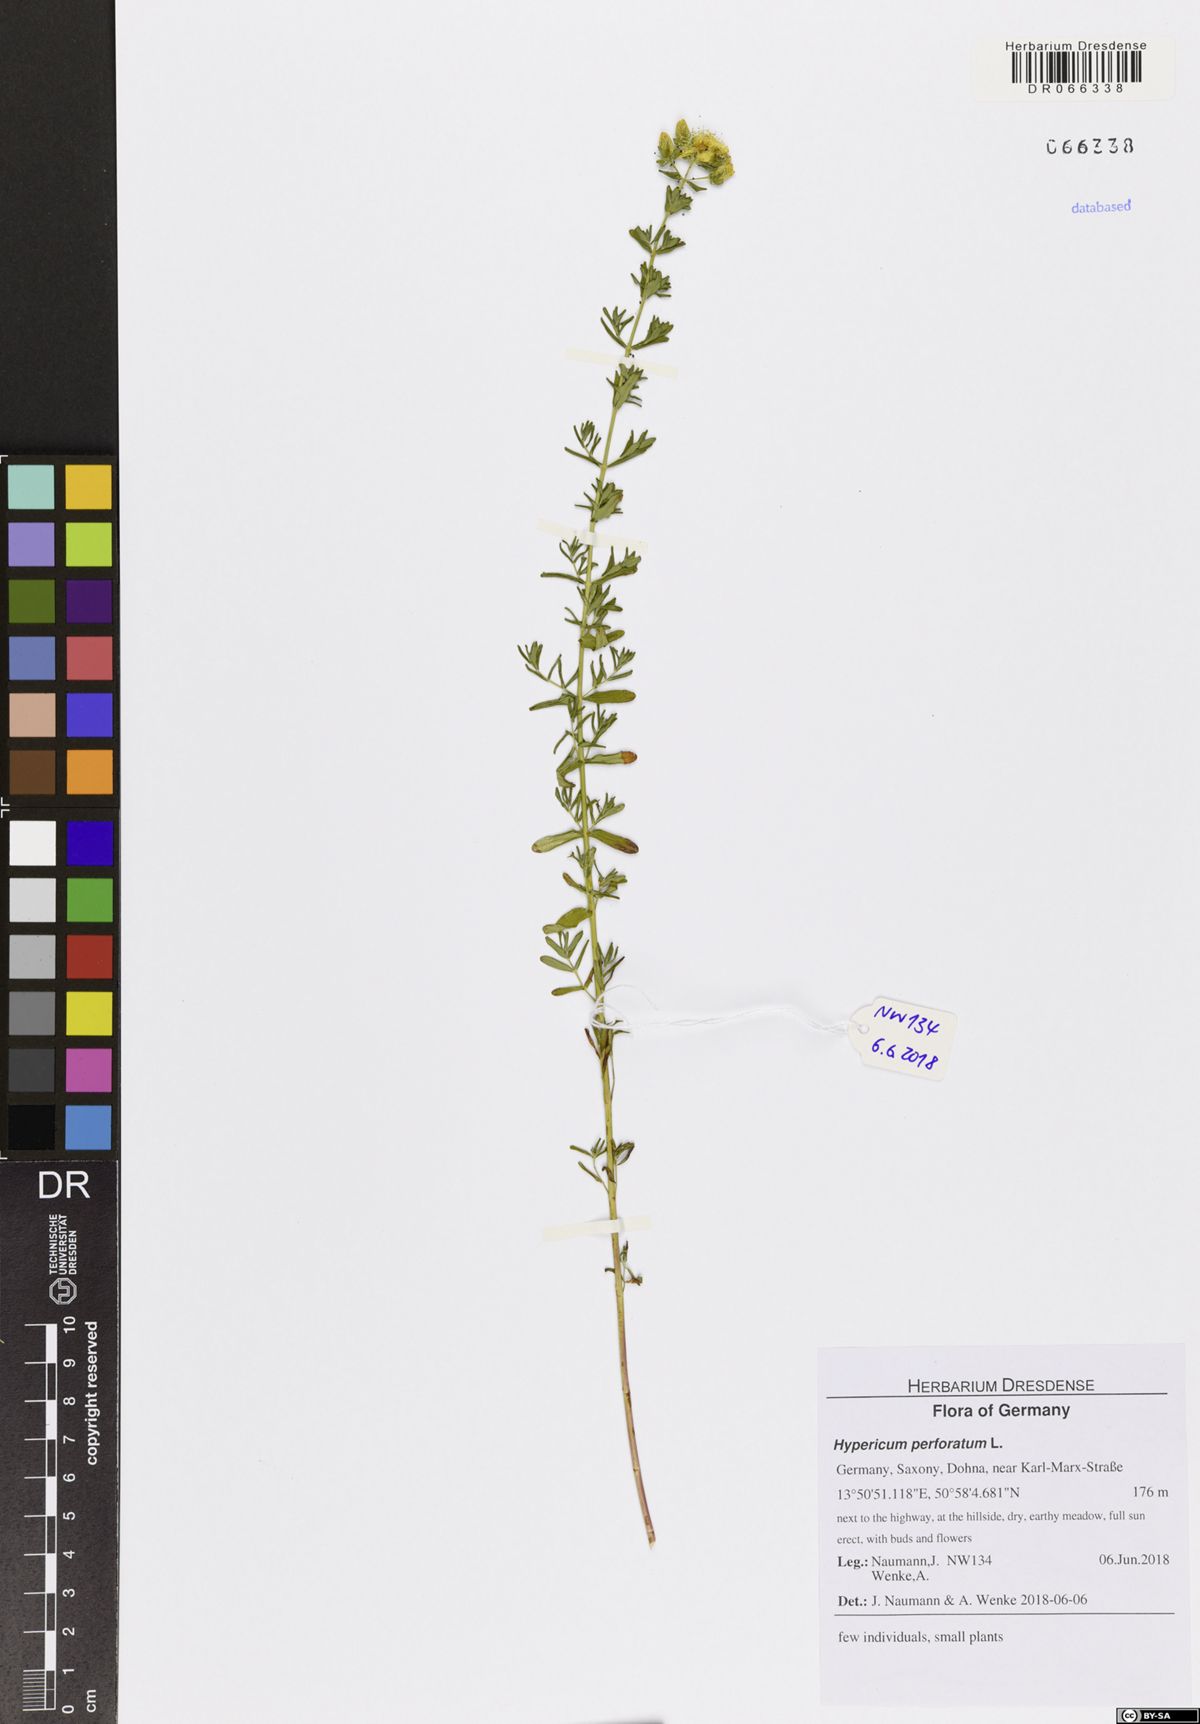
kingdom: Plantae
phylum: Tracheophyta
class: Magnoliopsida
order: Malpighiales
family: Hypericaceae
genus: Hypericum
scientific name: Hypericum perforatum
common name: Common st. johnswort
